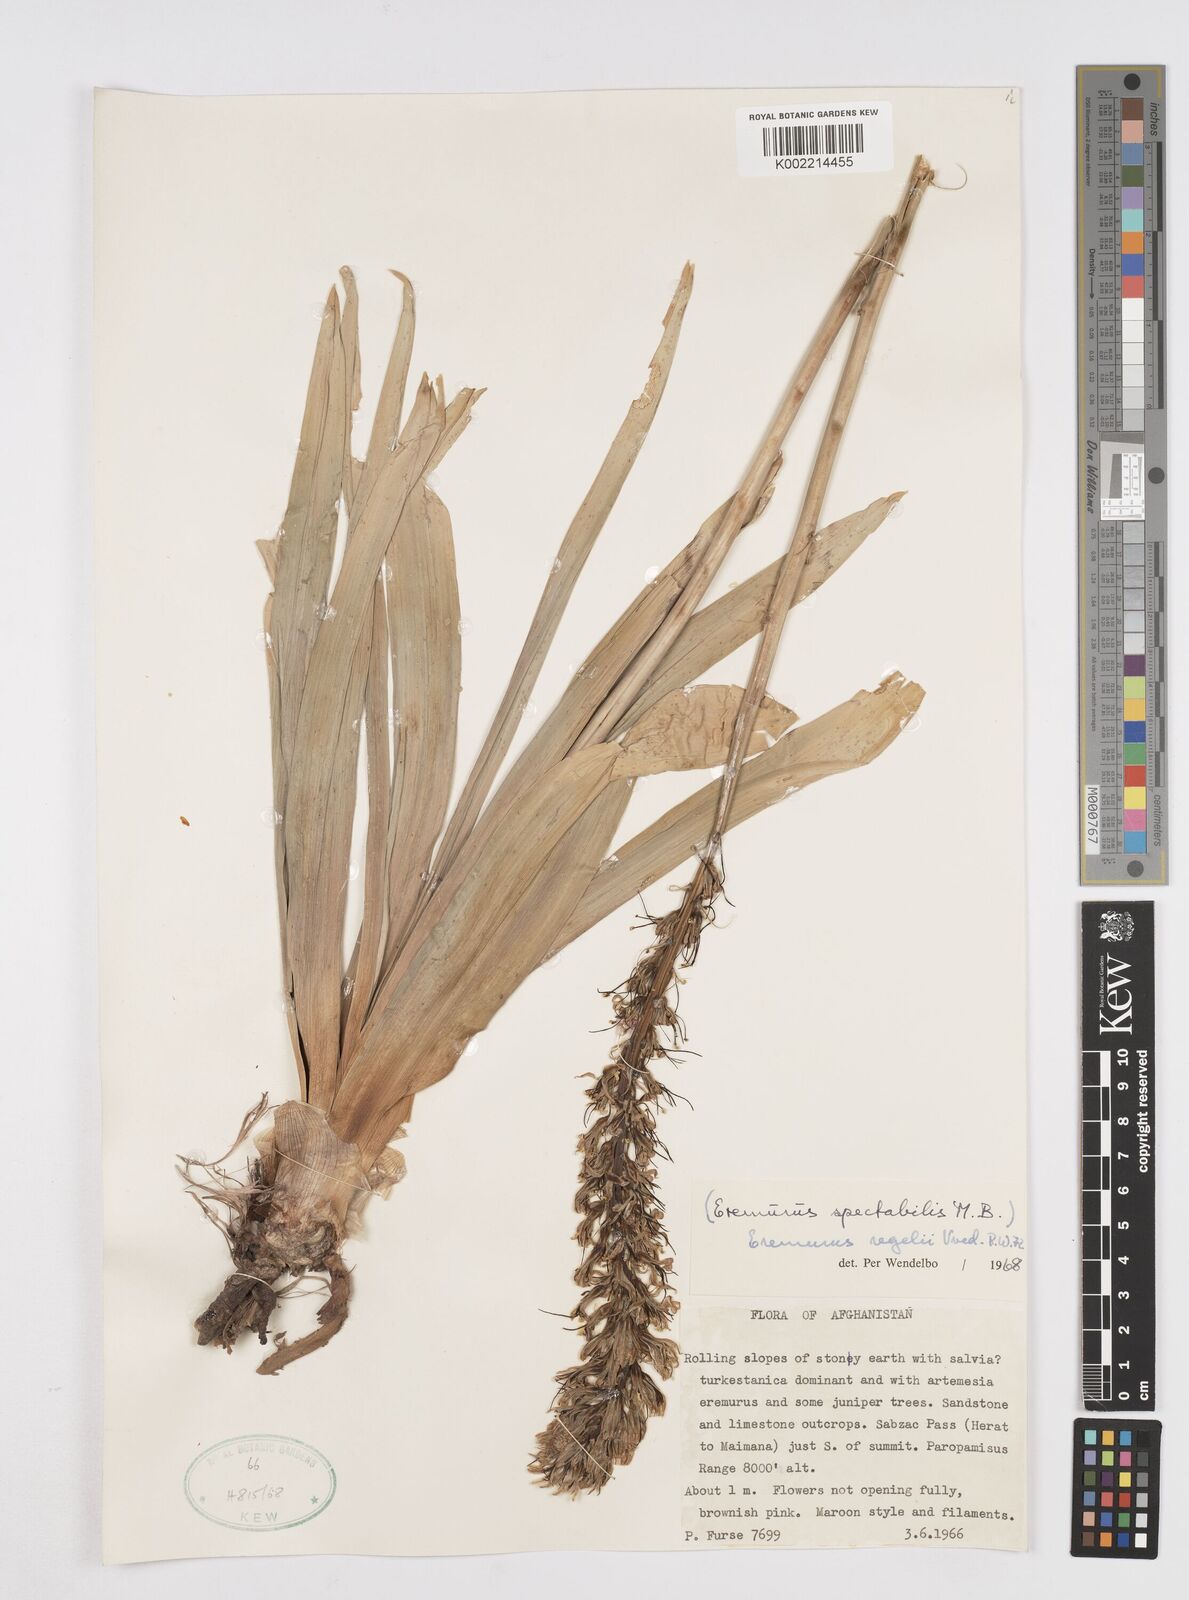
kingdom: Plantae
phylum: Tracheophyta
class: Liliopsida
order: Asparagales
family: Asphodelaceae
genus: Eremurus
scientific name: Eremurus regelii
